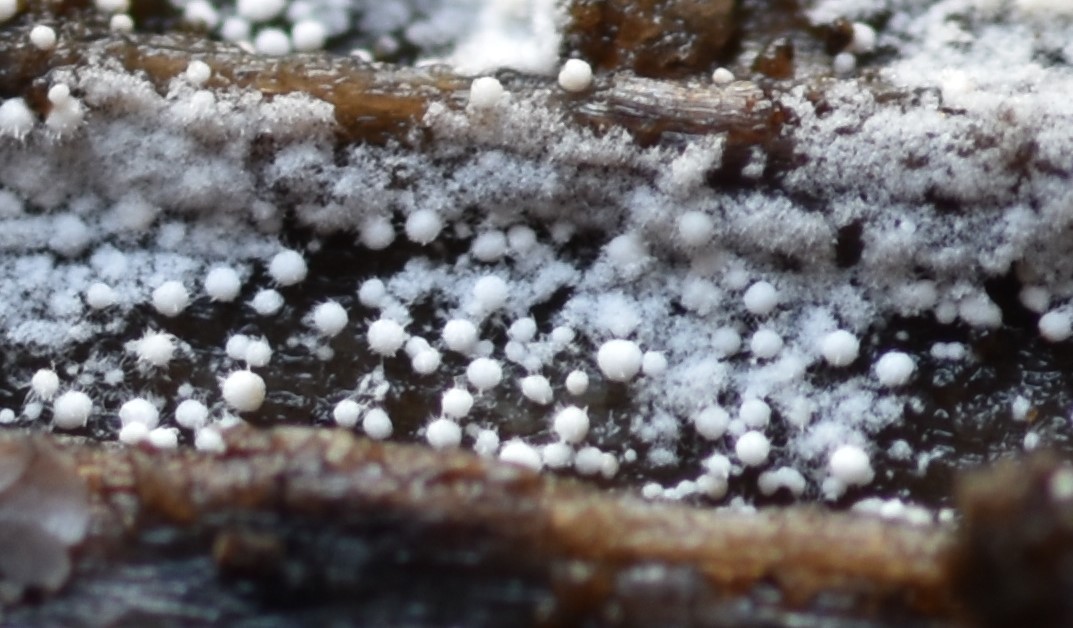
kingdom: Fungi
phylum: Basidiomycota
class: Agaricomycetes
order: Trechisporales
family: Hydnodontaceae
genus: Subulicystidium
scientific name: Subulicystidium longisporum
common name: almindelig pigtrådshinde
